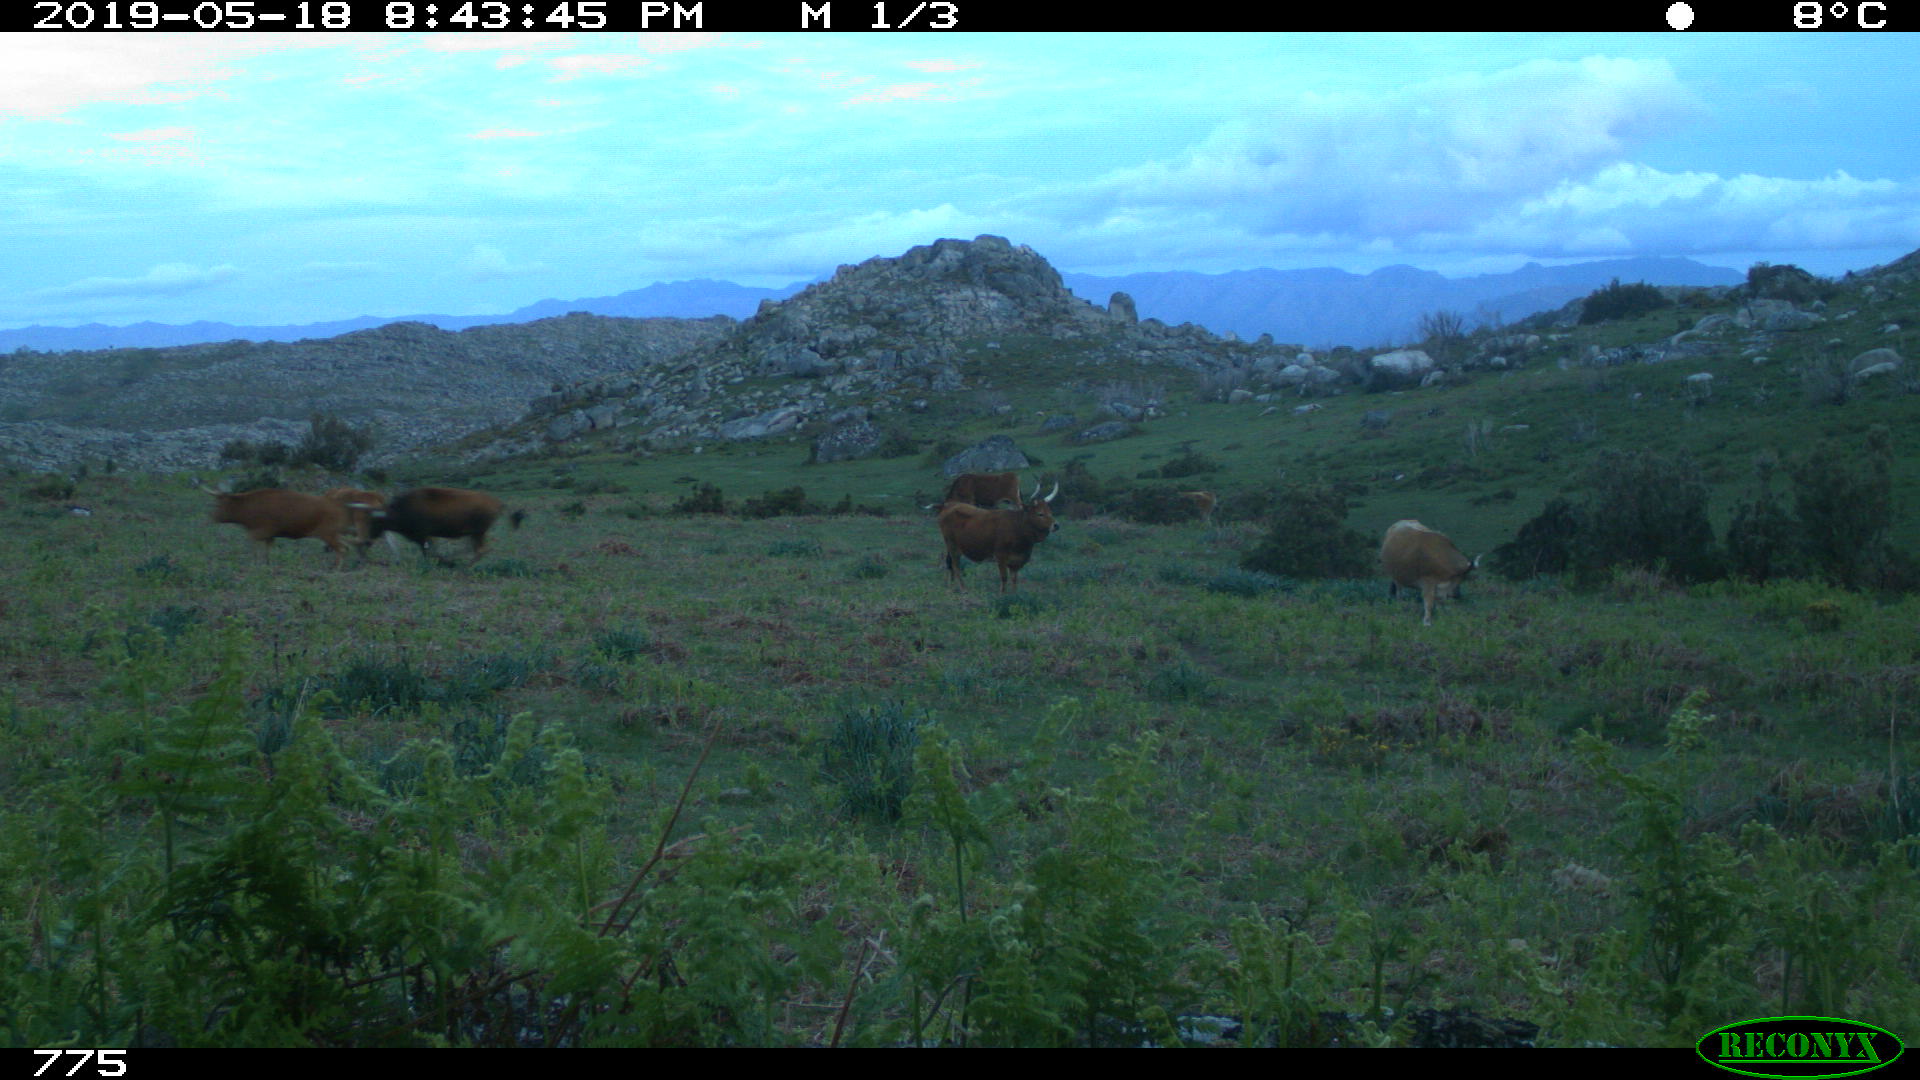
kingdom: Animalia
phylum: Chordata
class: Mammalia
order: Artiodactyla
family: Bovidae
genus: Bos
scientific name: Bos taurus
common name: Domesticated cattle
